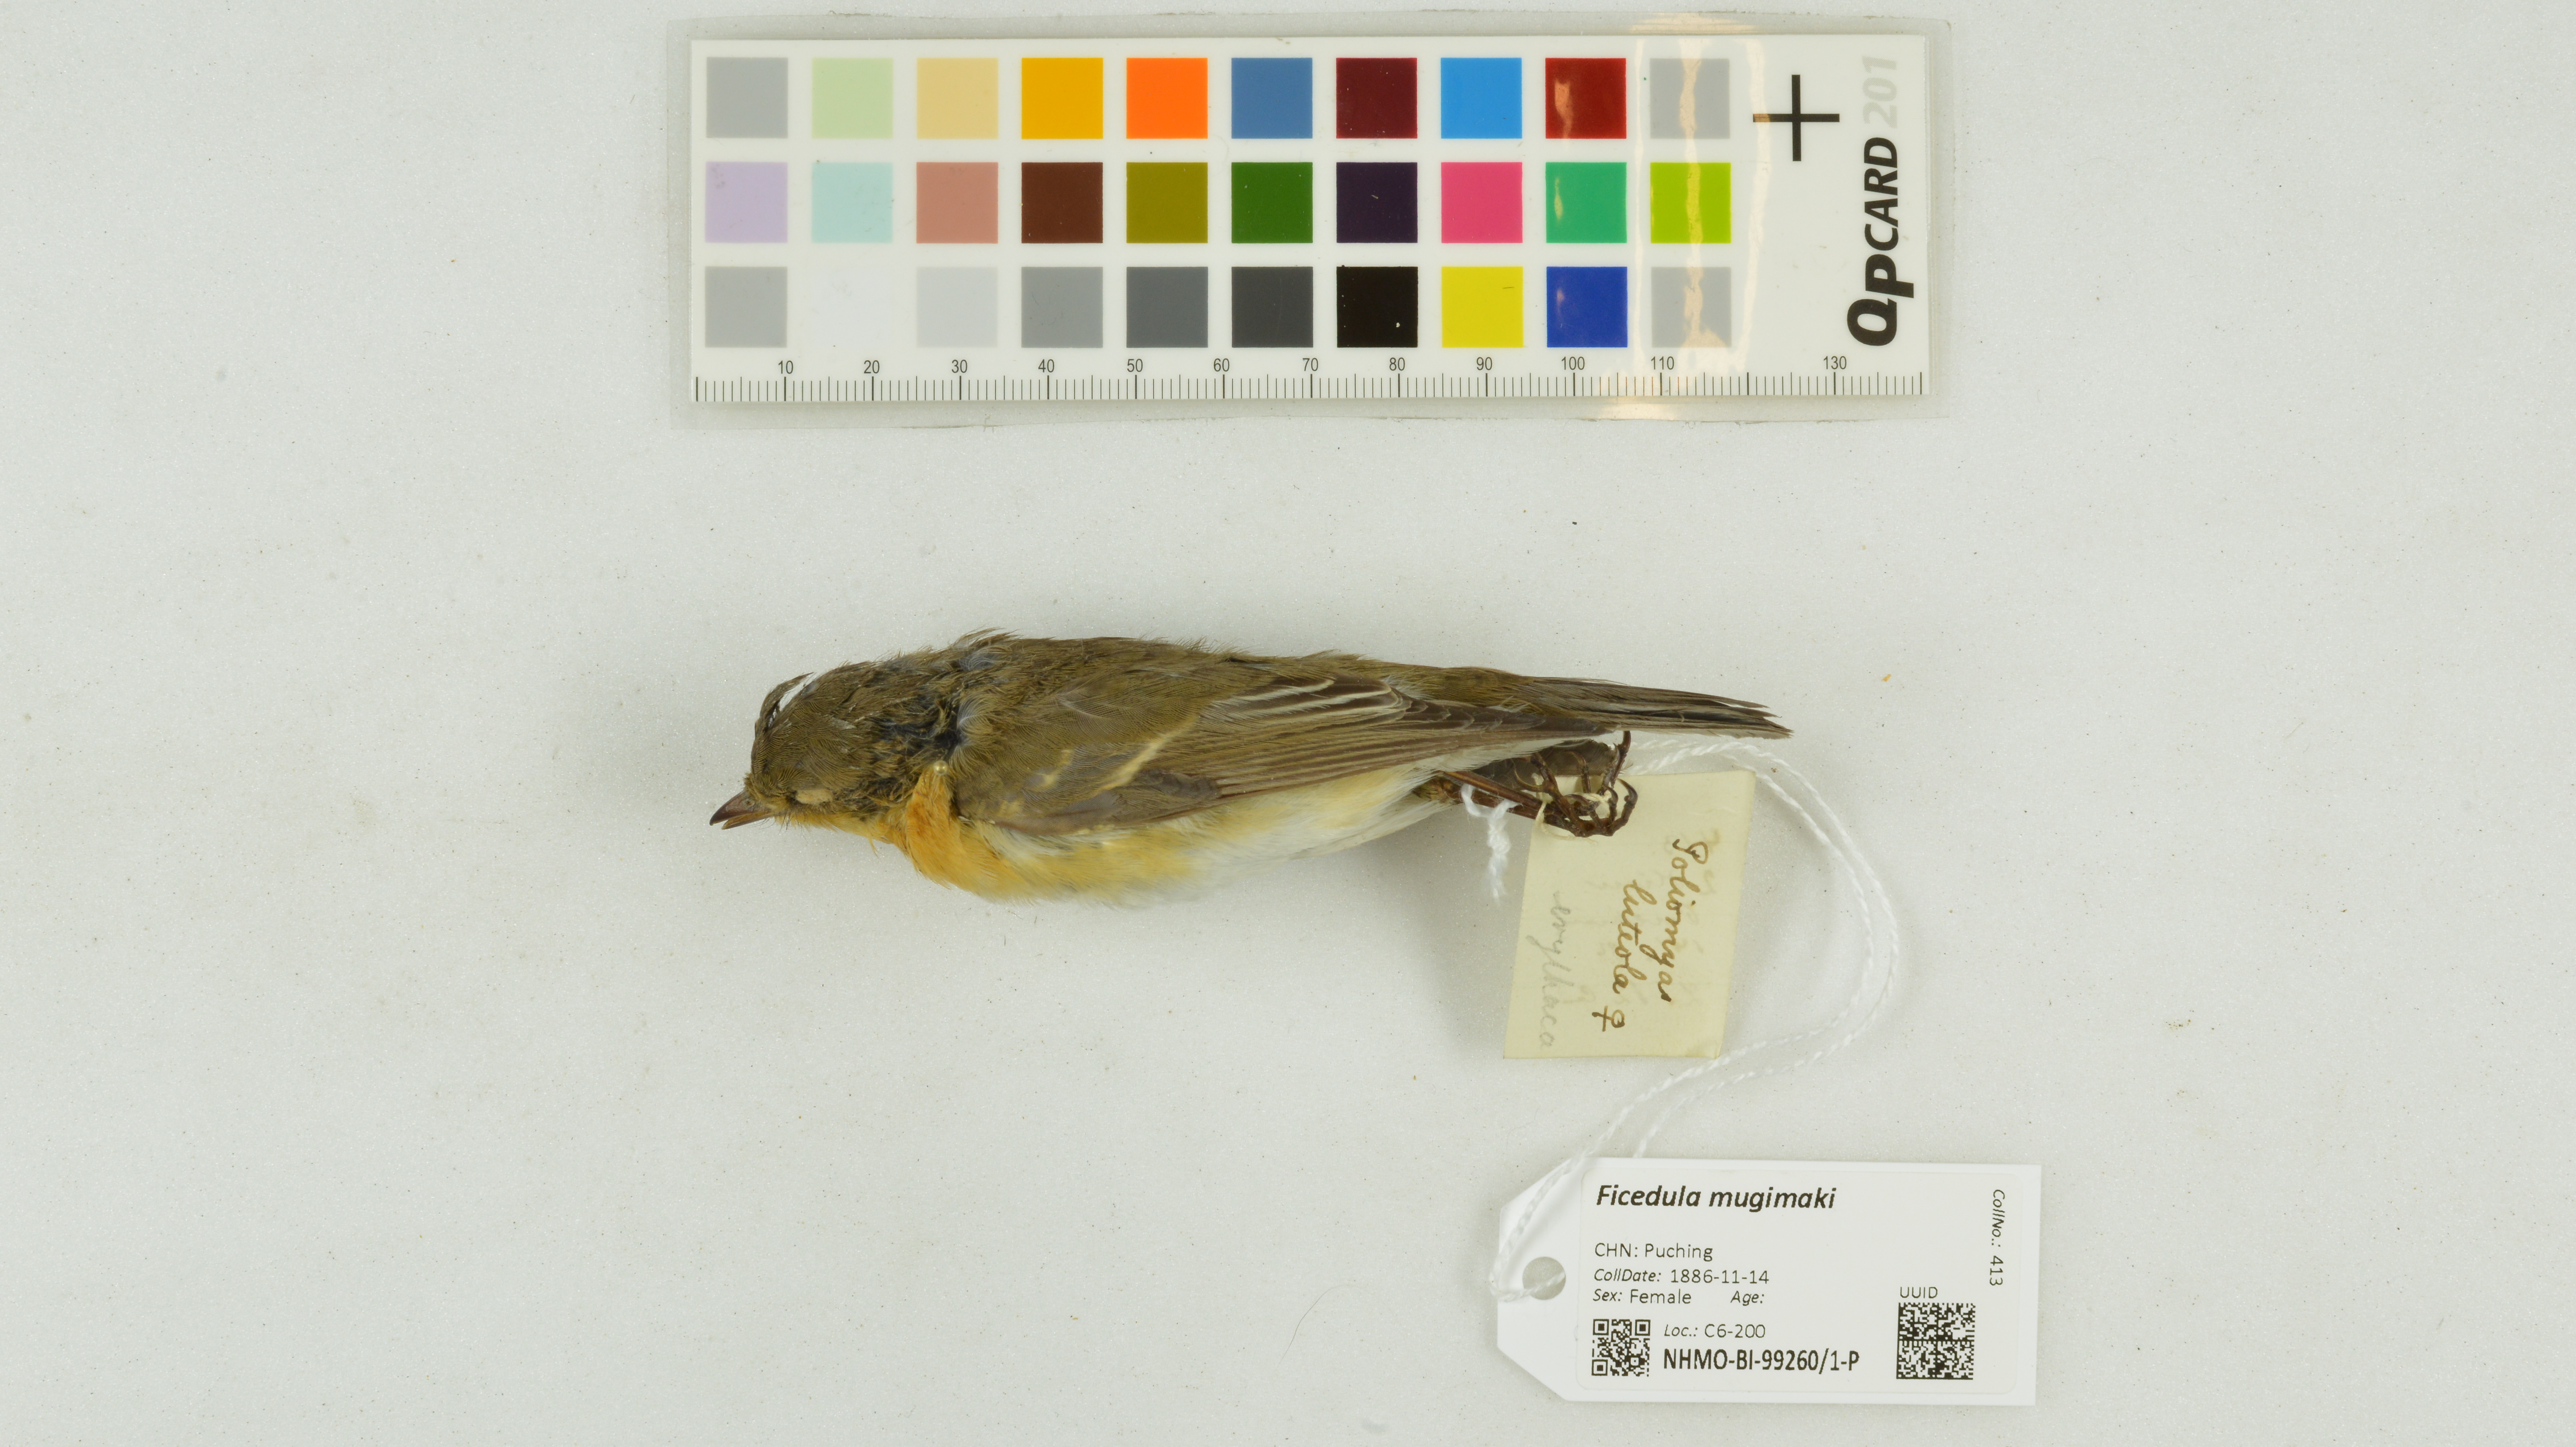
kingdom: Animalia
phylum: Chordata
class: Aves
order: Passeriformes
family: Muscicapidae
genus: Ficedula
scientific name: Ficedula mugimaki
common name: Mugimaki flycatcher
